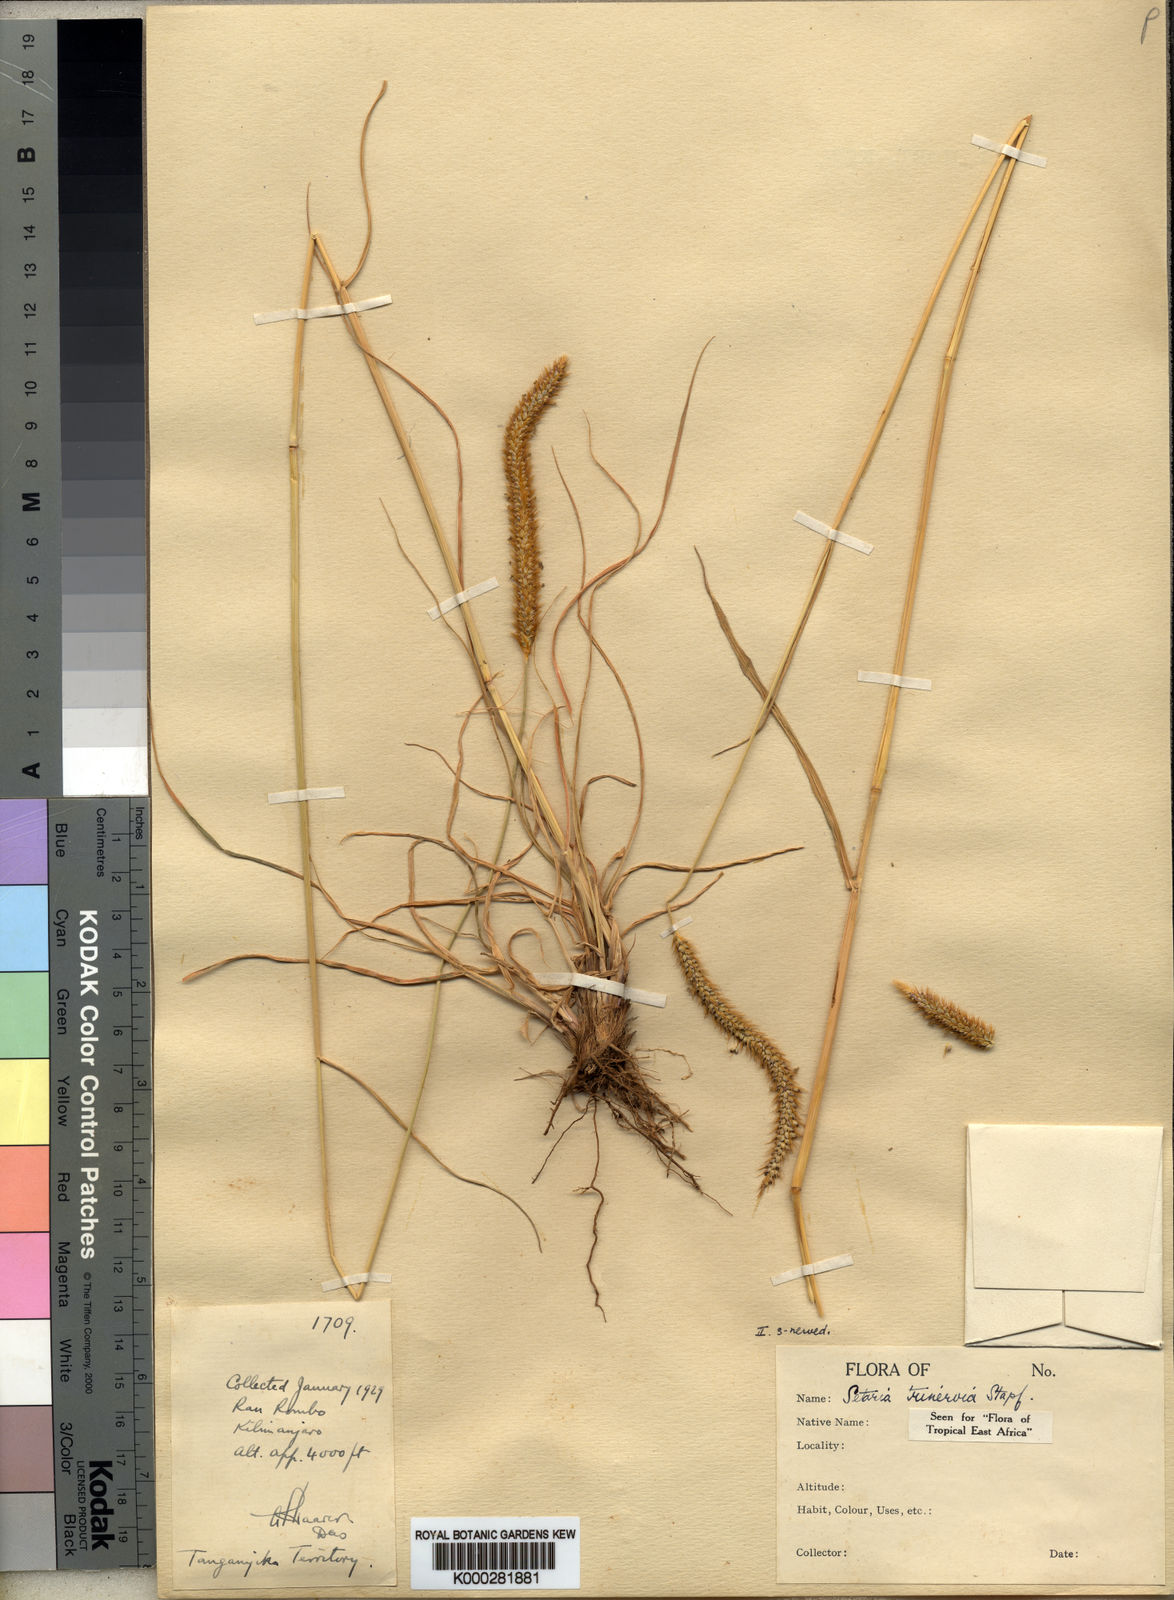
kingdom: Plantae
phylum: Tracheophyta
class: Liliopsida
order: Poales
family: Poaceae
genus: Setaria
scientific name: Setaria sphacelata
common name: African bristlegrass
